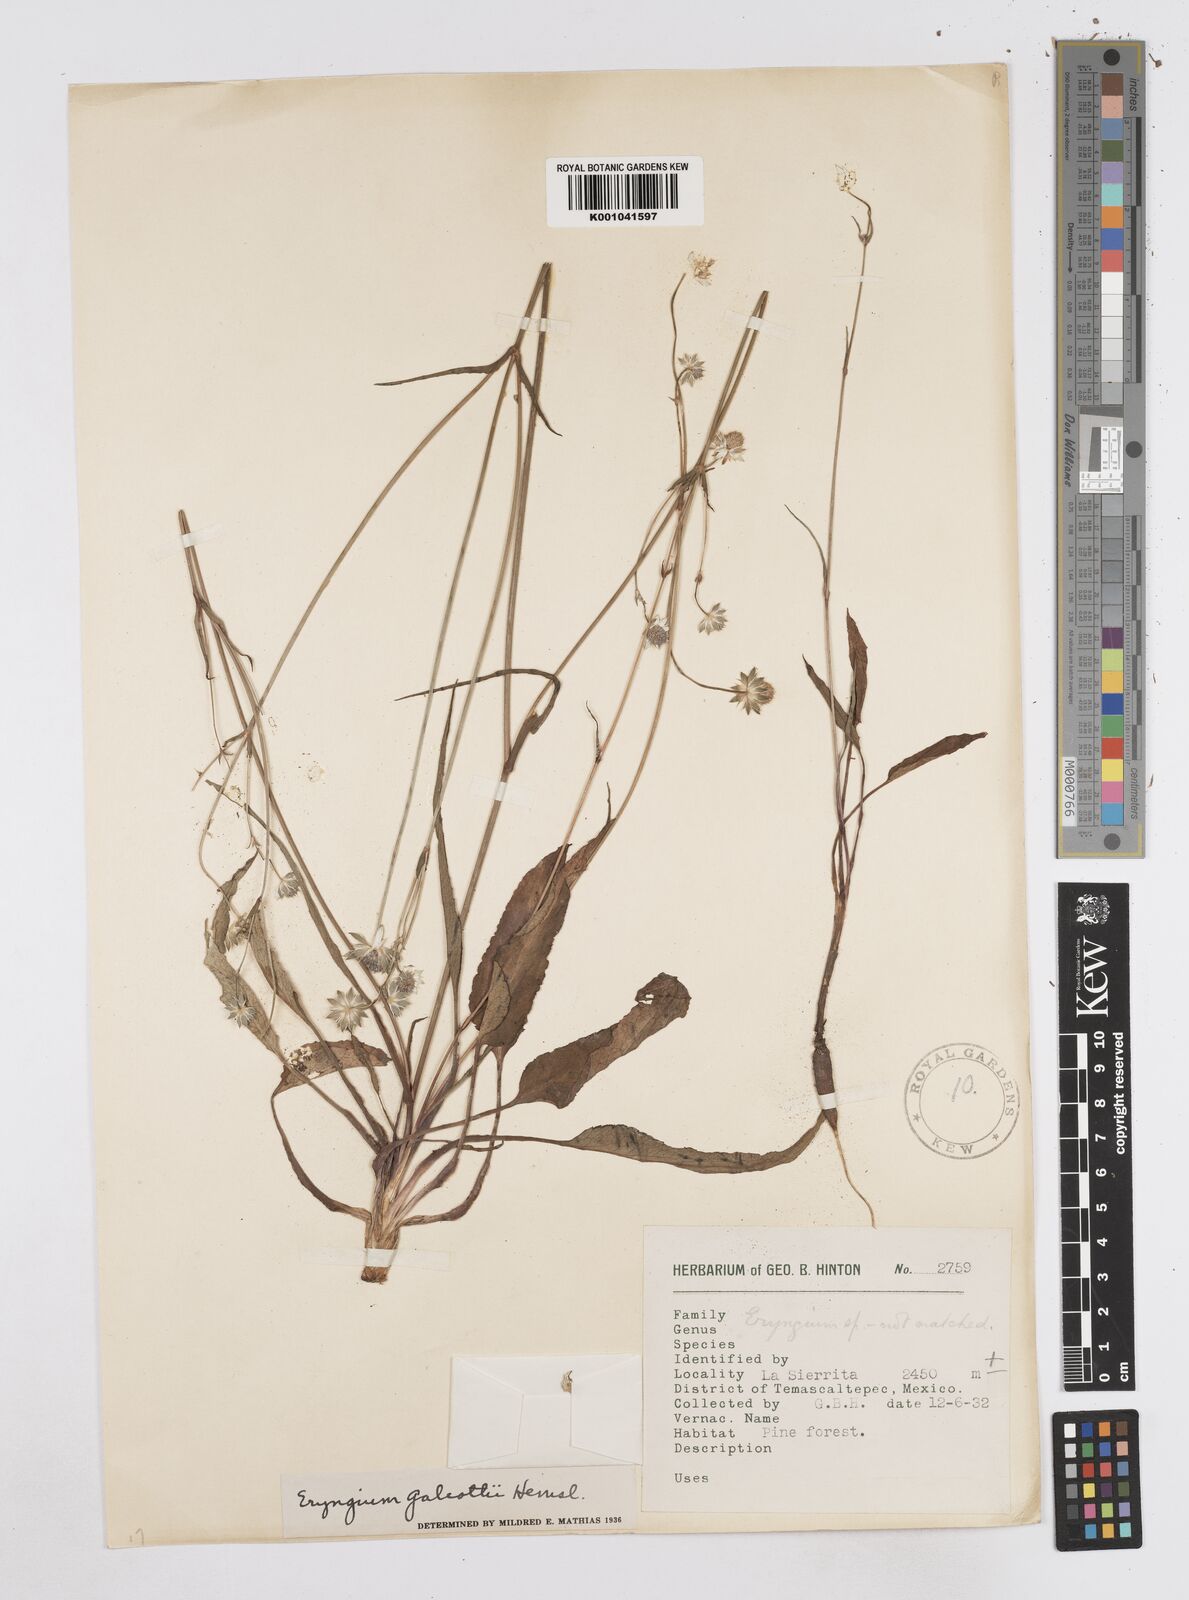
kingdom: Plantae
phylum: Tracheophyta
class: Magnoliopsida
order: Apiales
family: Apiaceae
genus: Eryngium
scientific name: Eryngium galeottii
